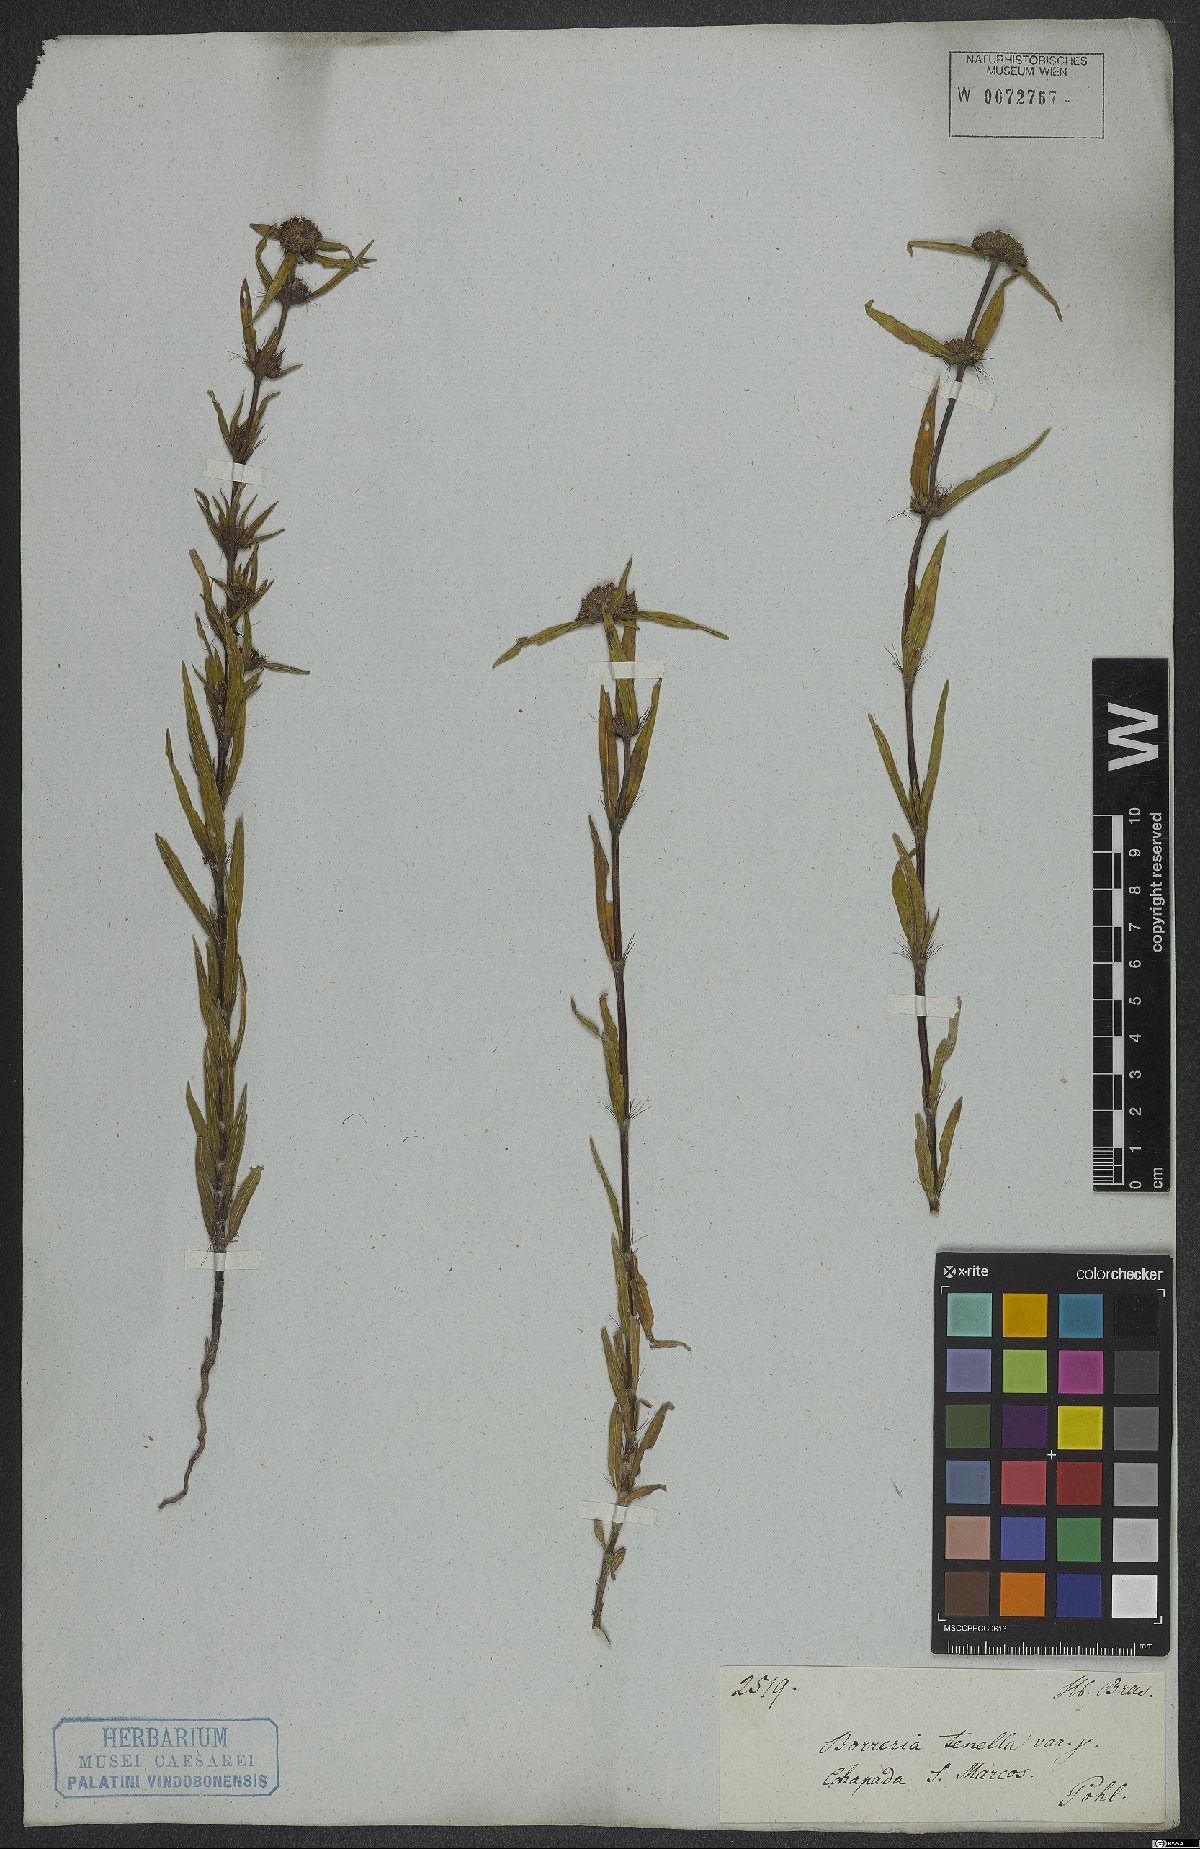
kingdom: Plantae
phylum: Tracheophyta
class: Magnoliopsida
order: Gentianales
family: Rubiaceae
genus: Spermacoce
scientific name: Spermacoce orinocensis
